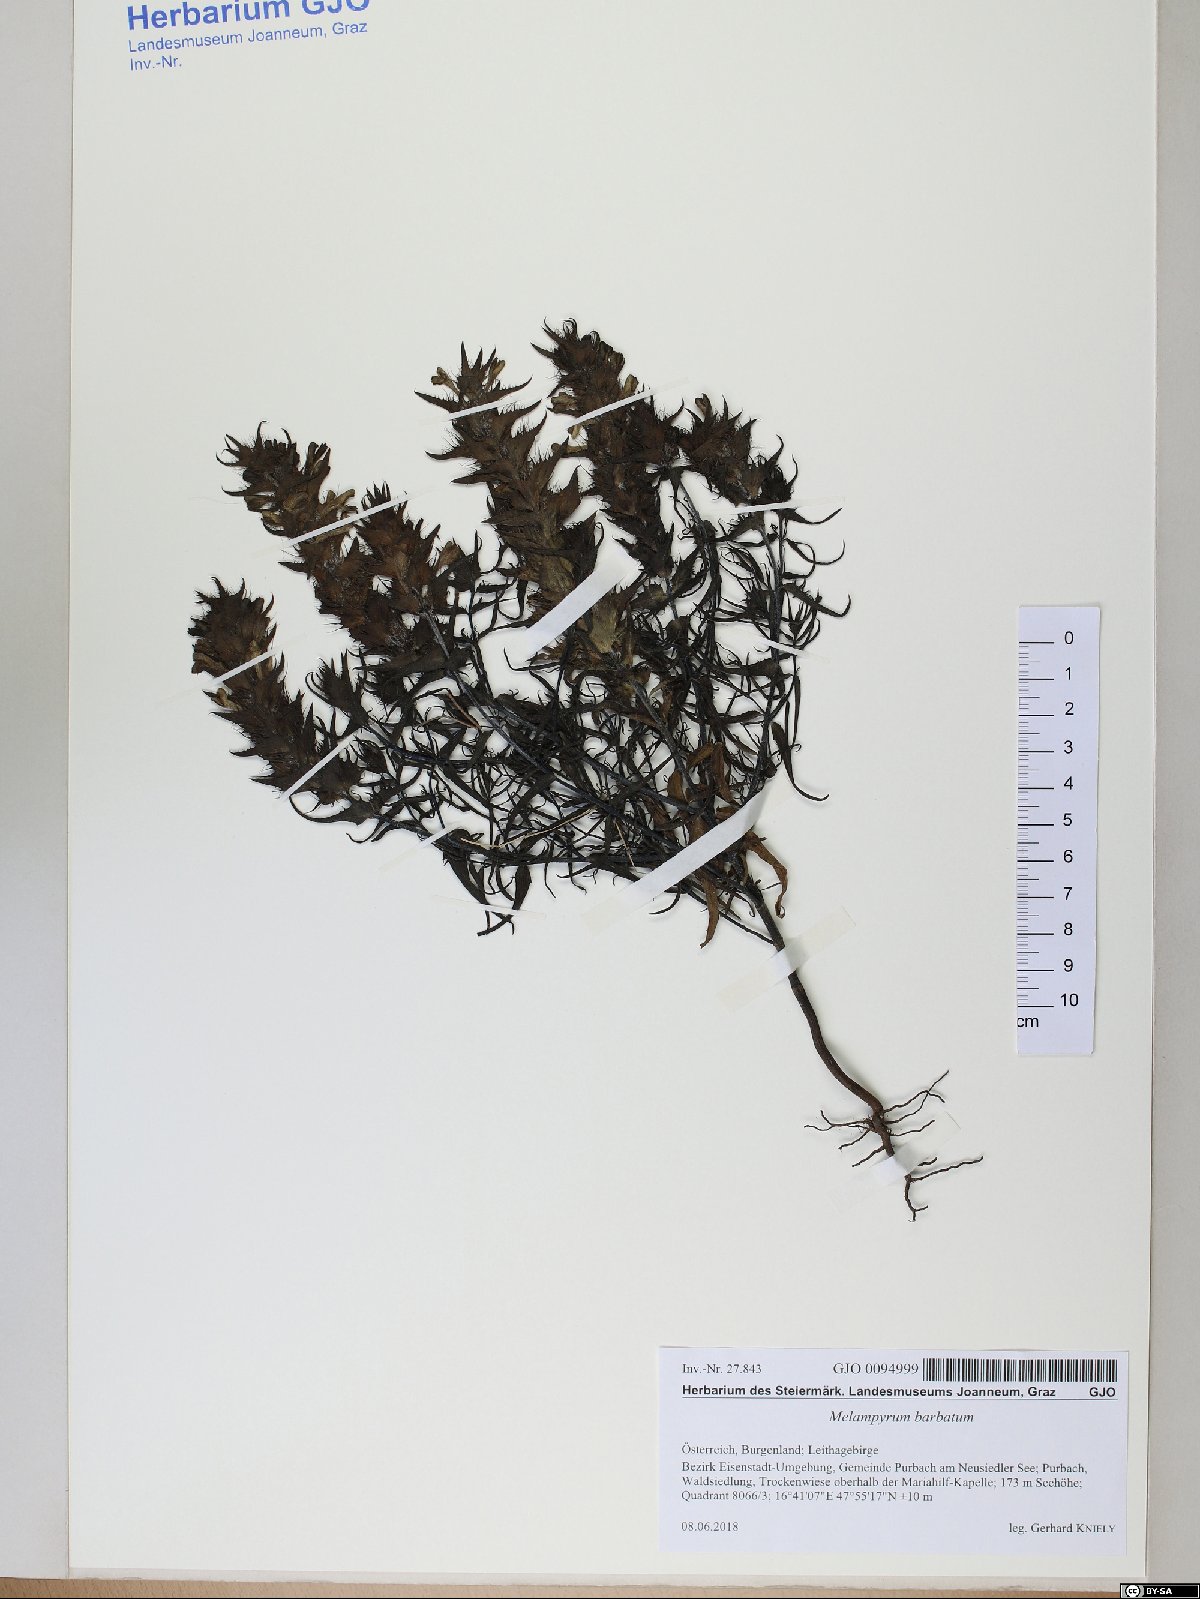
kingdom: Plantae
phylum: Tracheophyta
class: Magnoliopsida
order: Lamiales
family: Orobanchaceae
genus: Melampyrum
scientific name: Melampyrum barbatum
